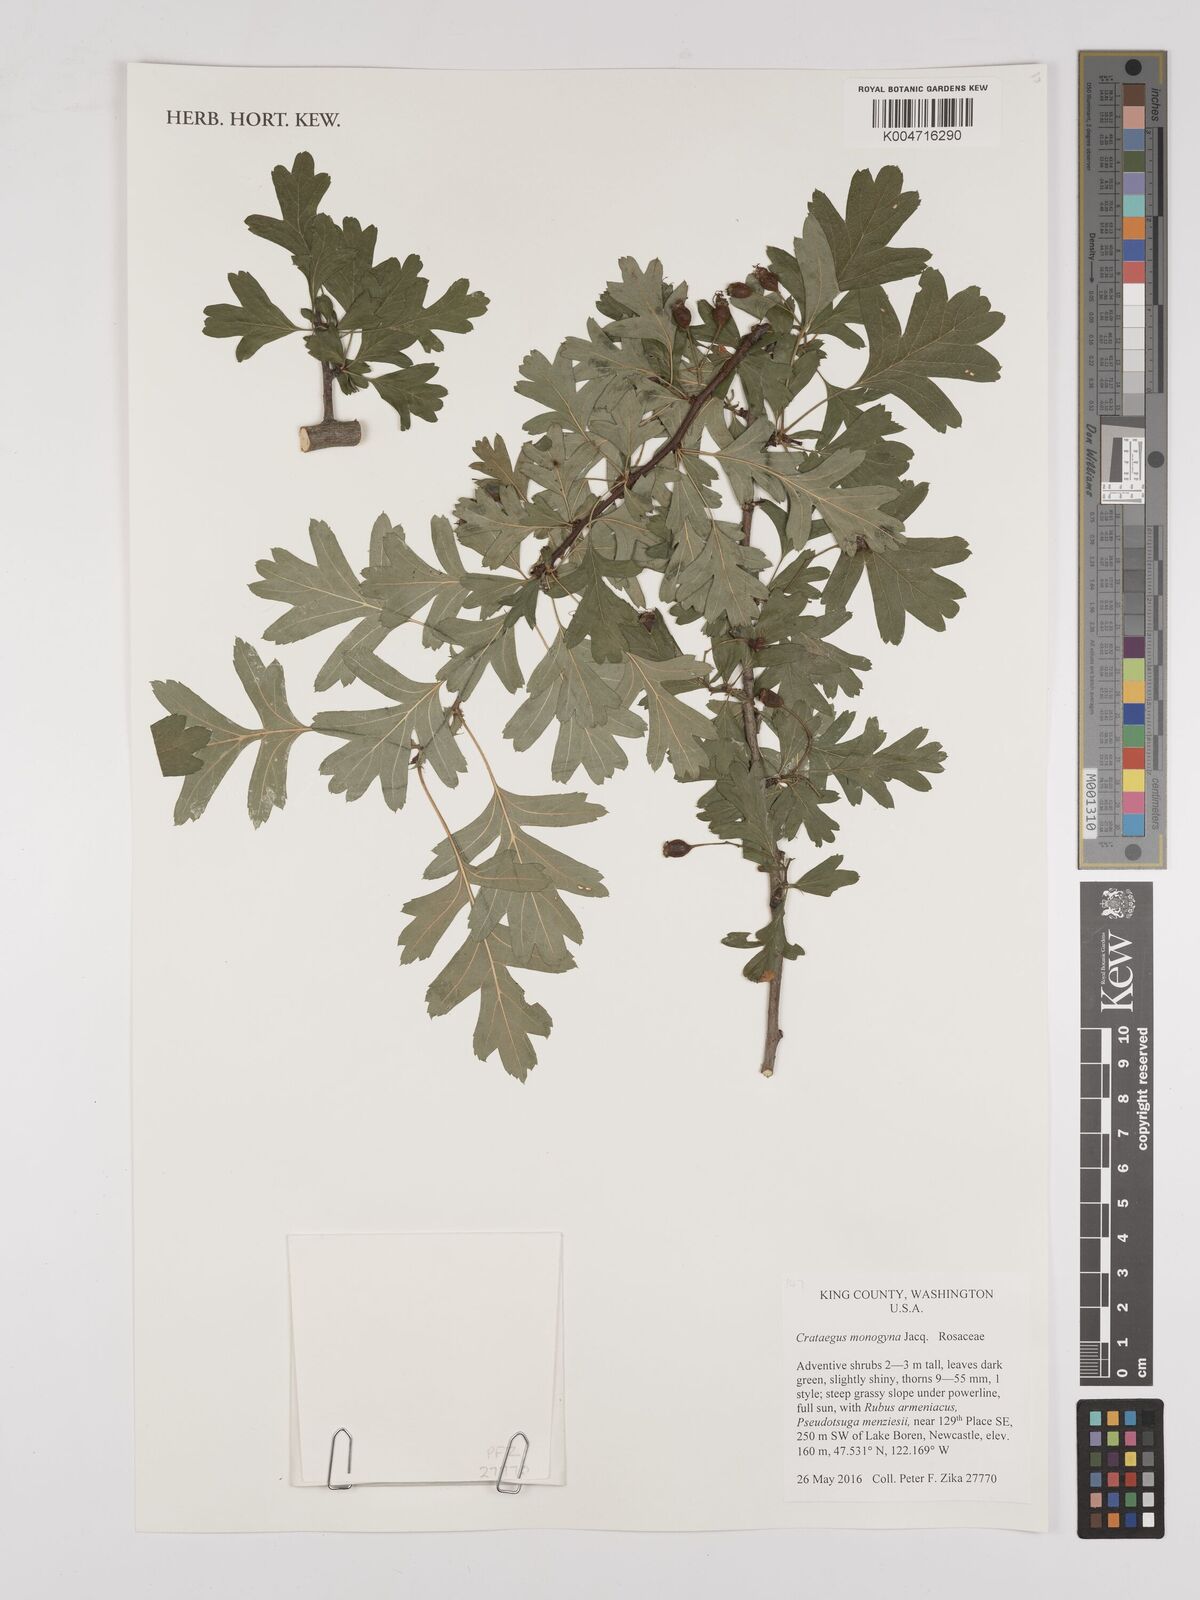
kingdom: Plantae
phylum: Tracheophyta
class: Magnoliopsida
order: Rosales
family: Rosaceae
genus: Crataegus
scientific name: Crataegus monogyna
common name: Hawthorn
